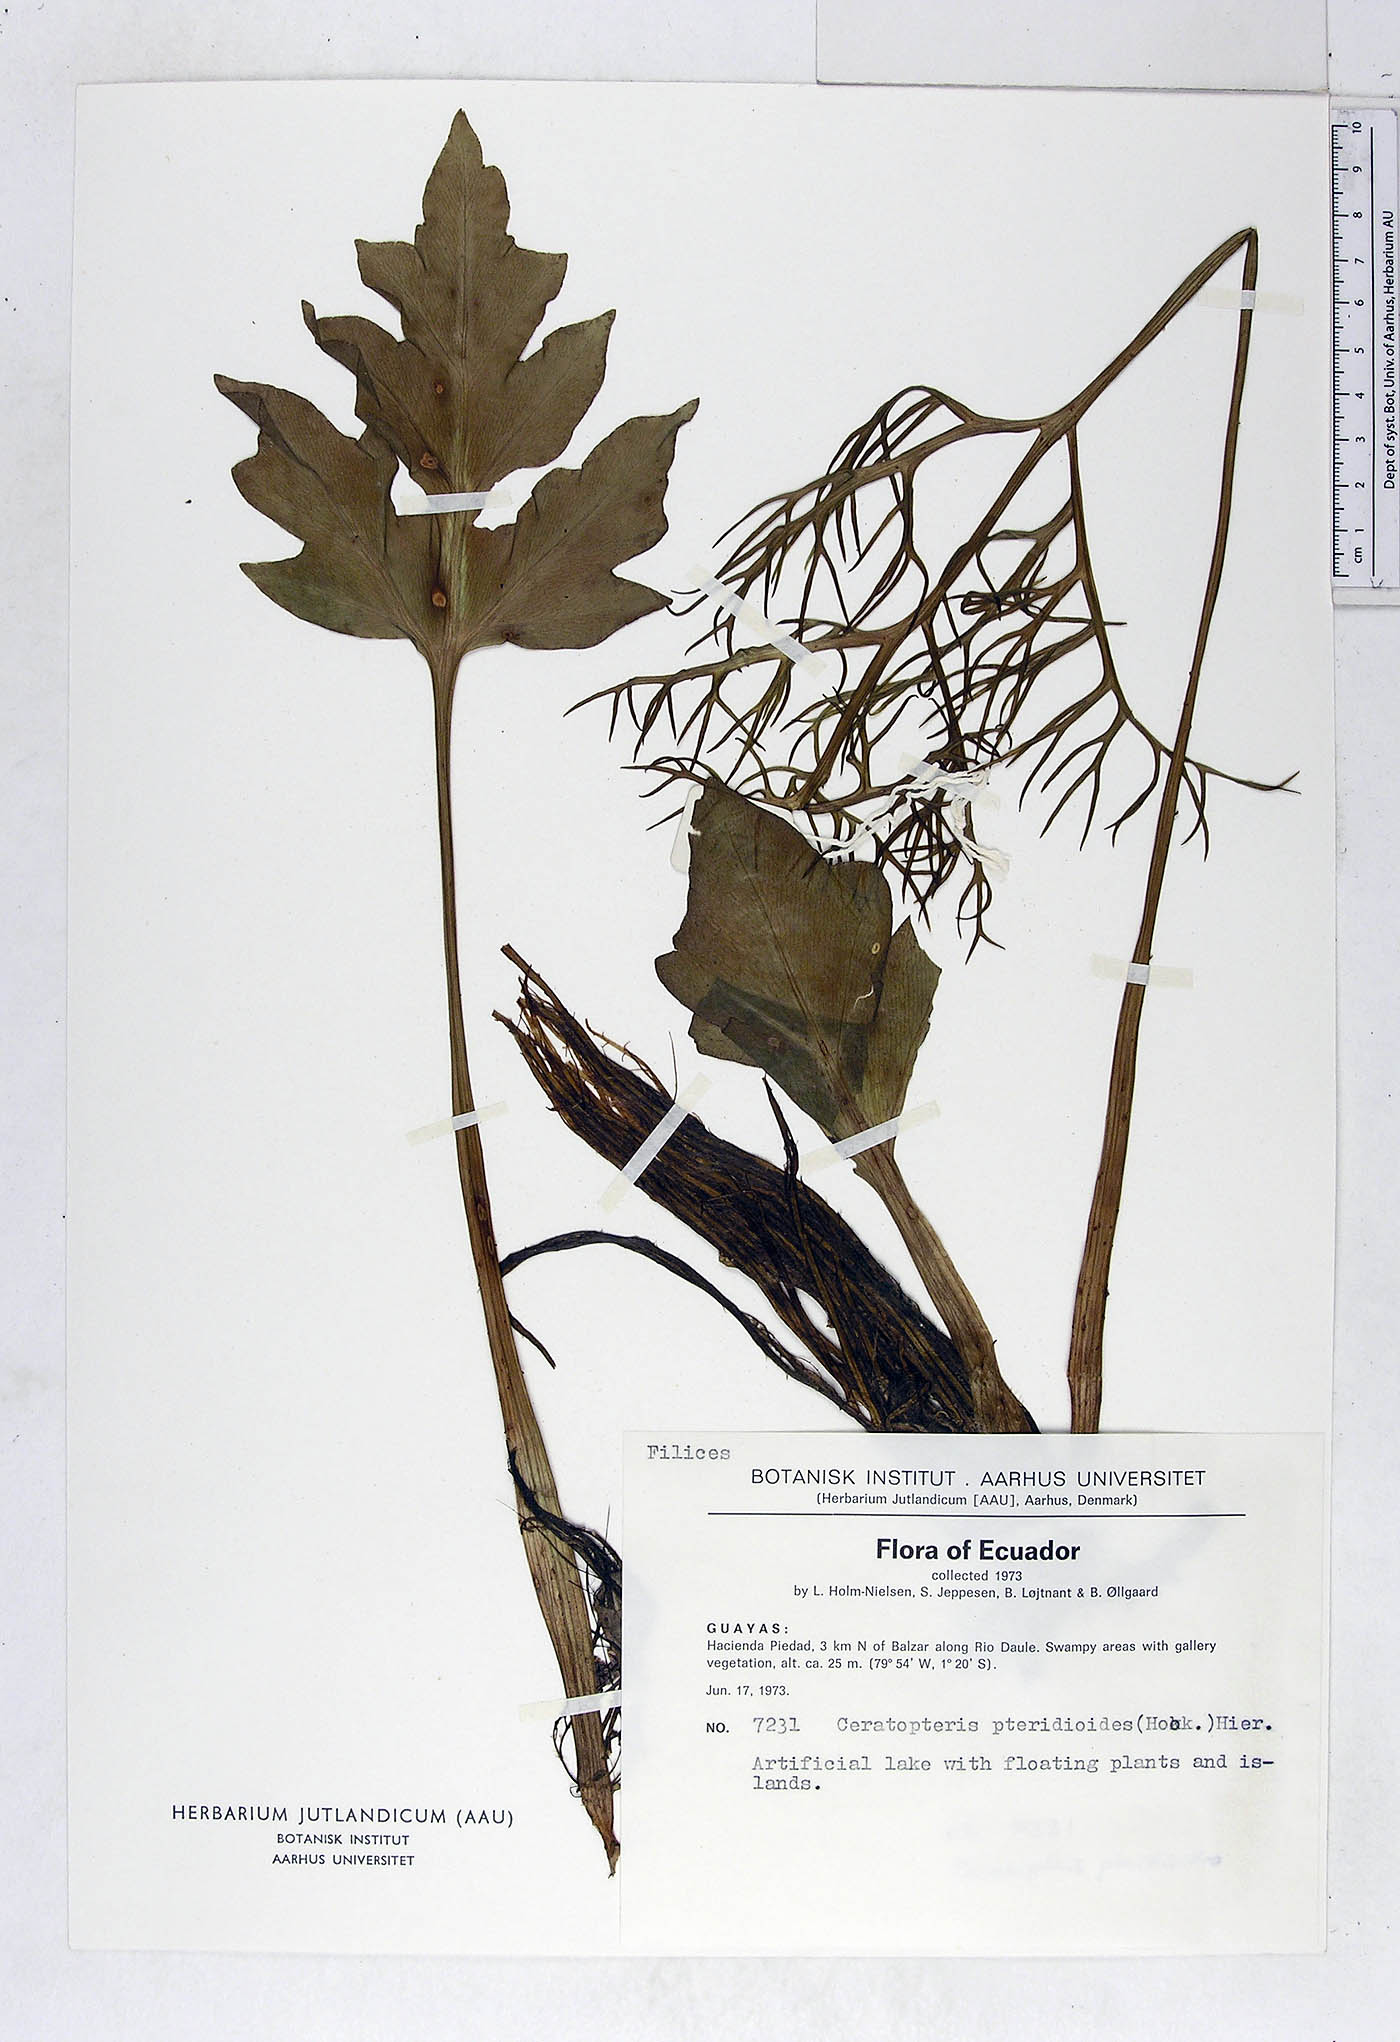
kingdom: Plantae
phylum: Tracheophyta
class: Polypodiopsida
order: Polypodiales
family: Pteridaceae
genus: Ceratopteris
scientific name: Ceratopteris pteridoides
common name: Floating fern
